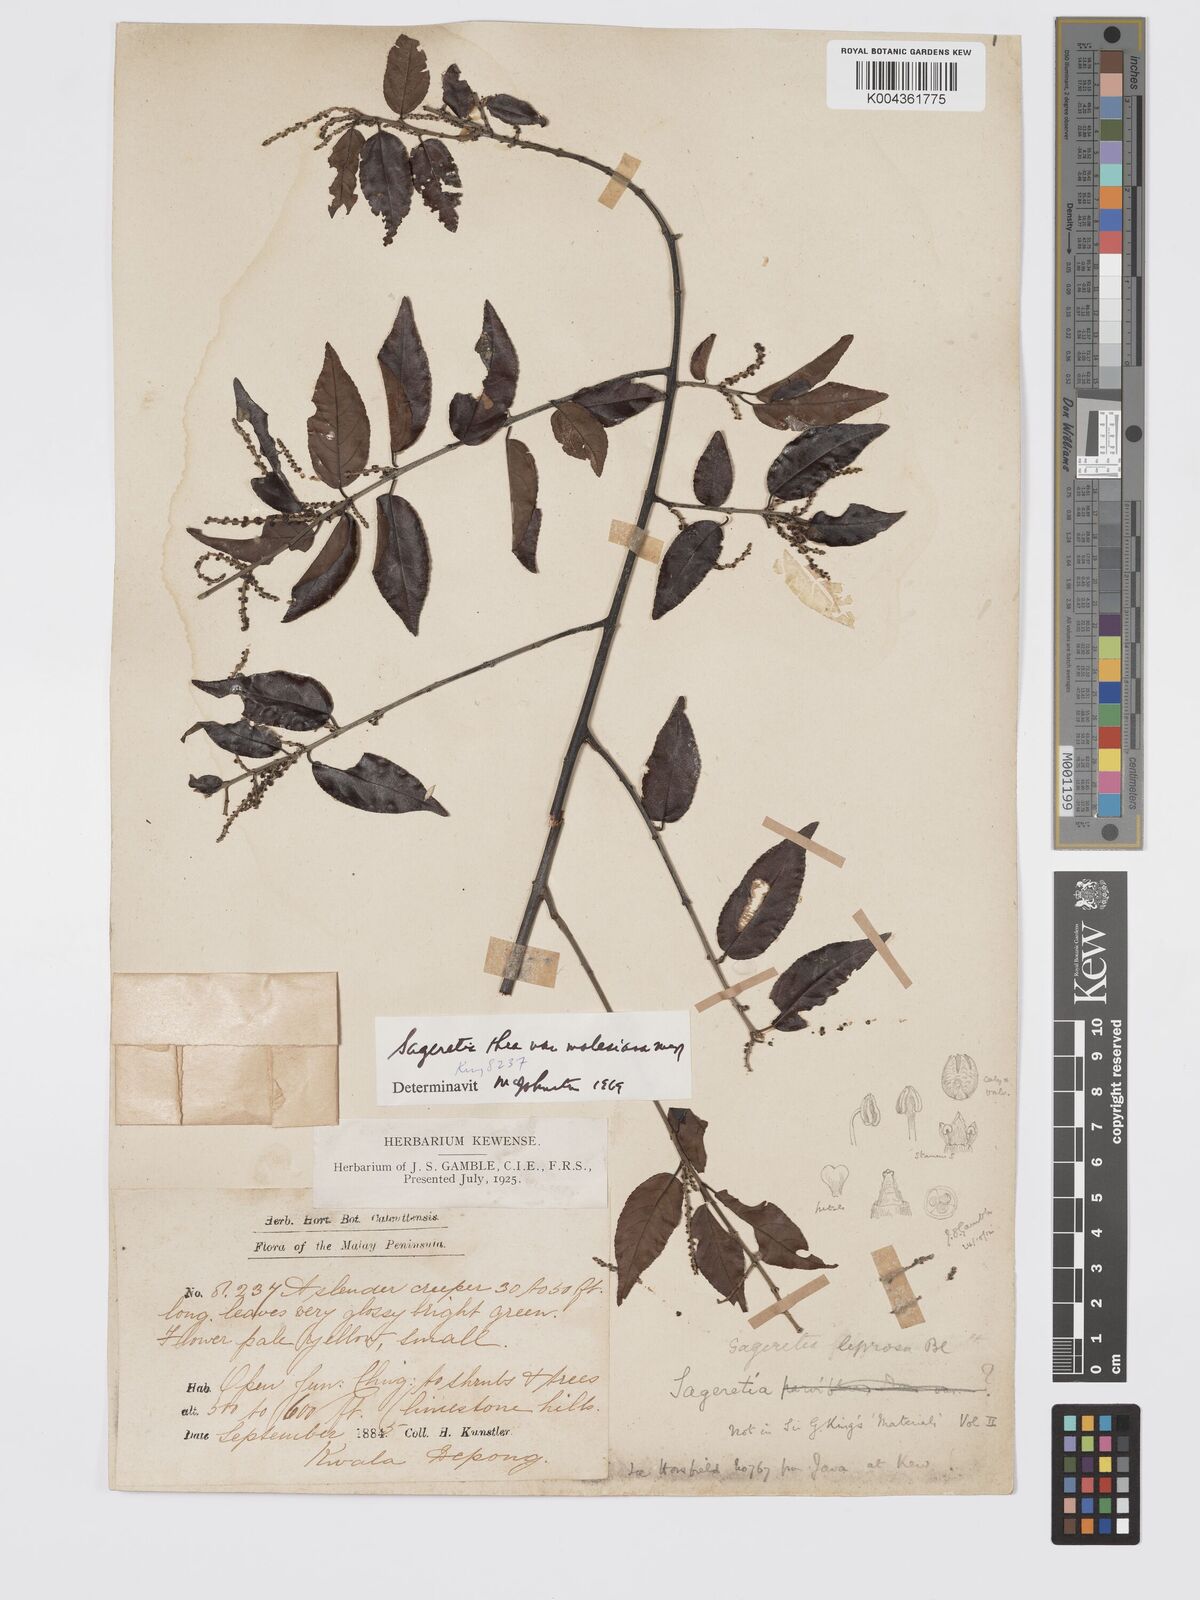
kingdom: Plantae
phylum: Tracheophyta
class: Magnoliopsida
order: Rosales
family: Rhamnaceae
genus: Sageretia
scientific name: Sageretia parviflora
